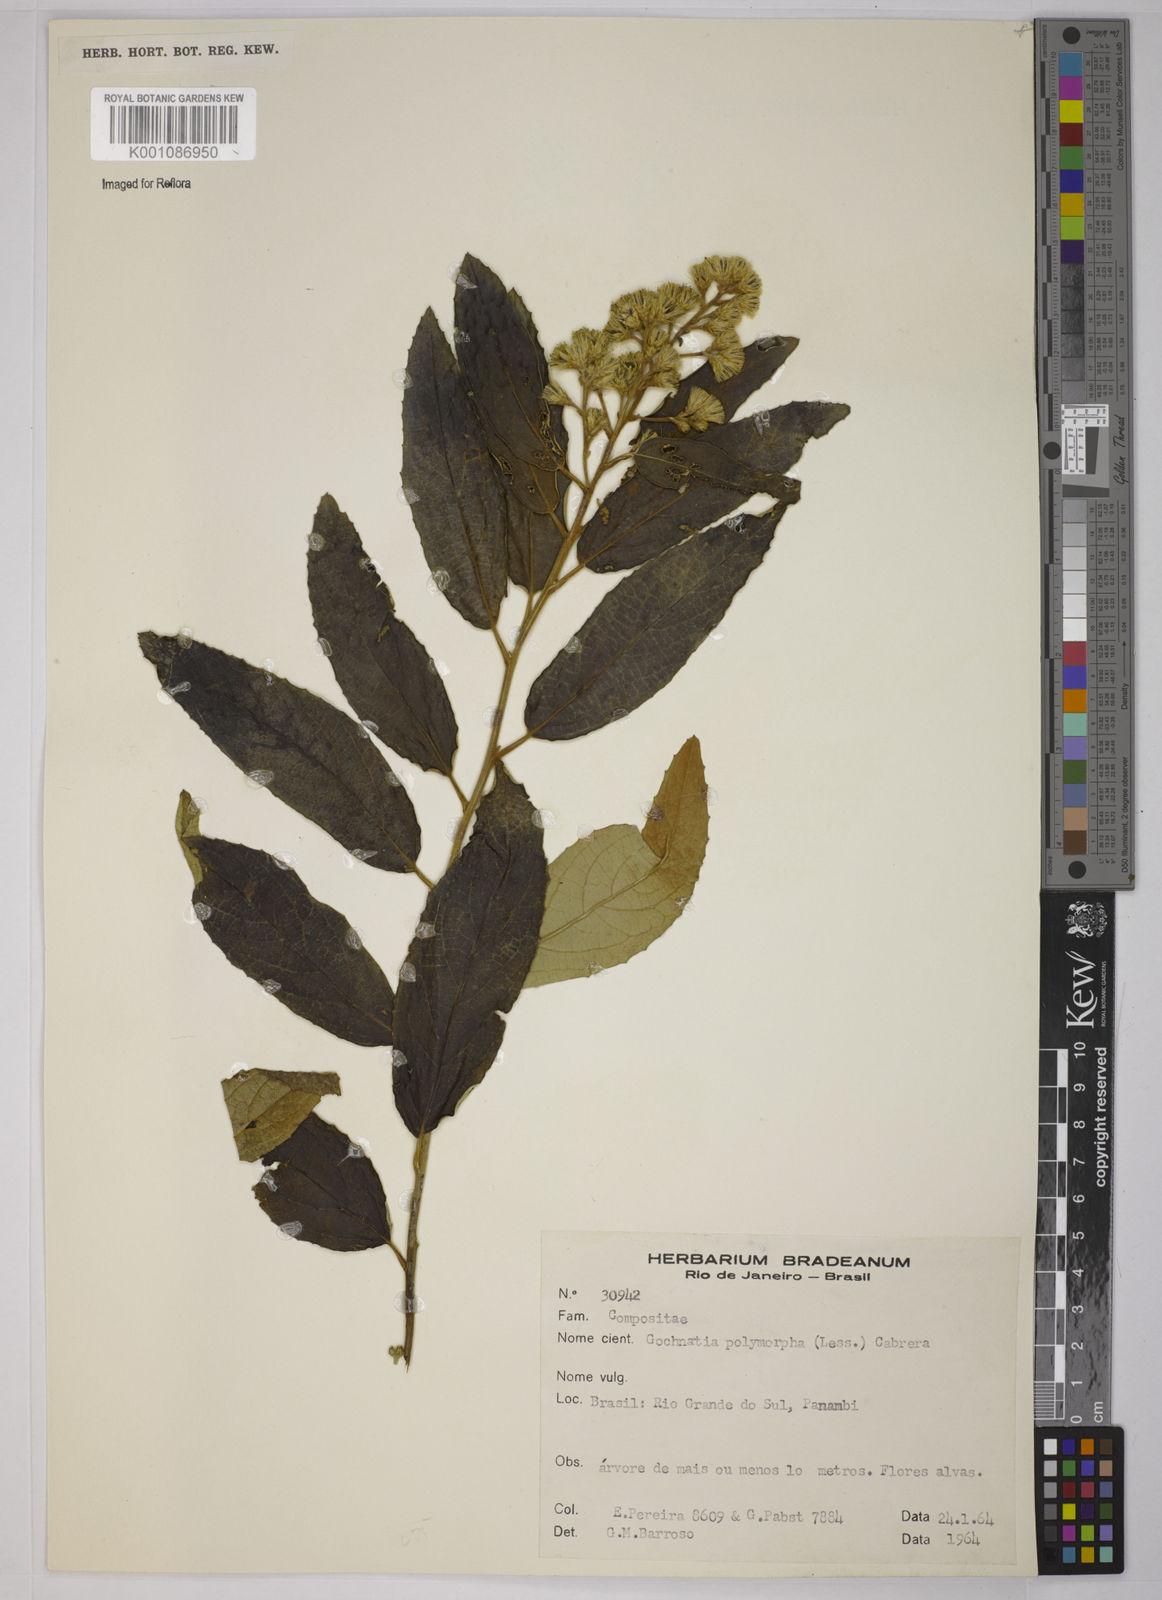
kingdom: Plantae
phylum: Tracheophyta
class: Magnoliopsida
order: Asterales
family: Asteraceae
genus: Moquiniastrum
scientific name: Moquiniastrum polymorphum
